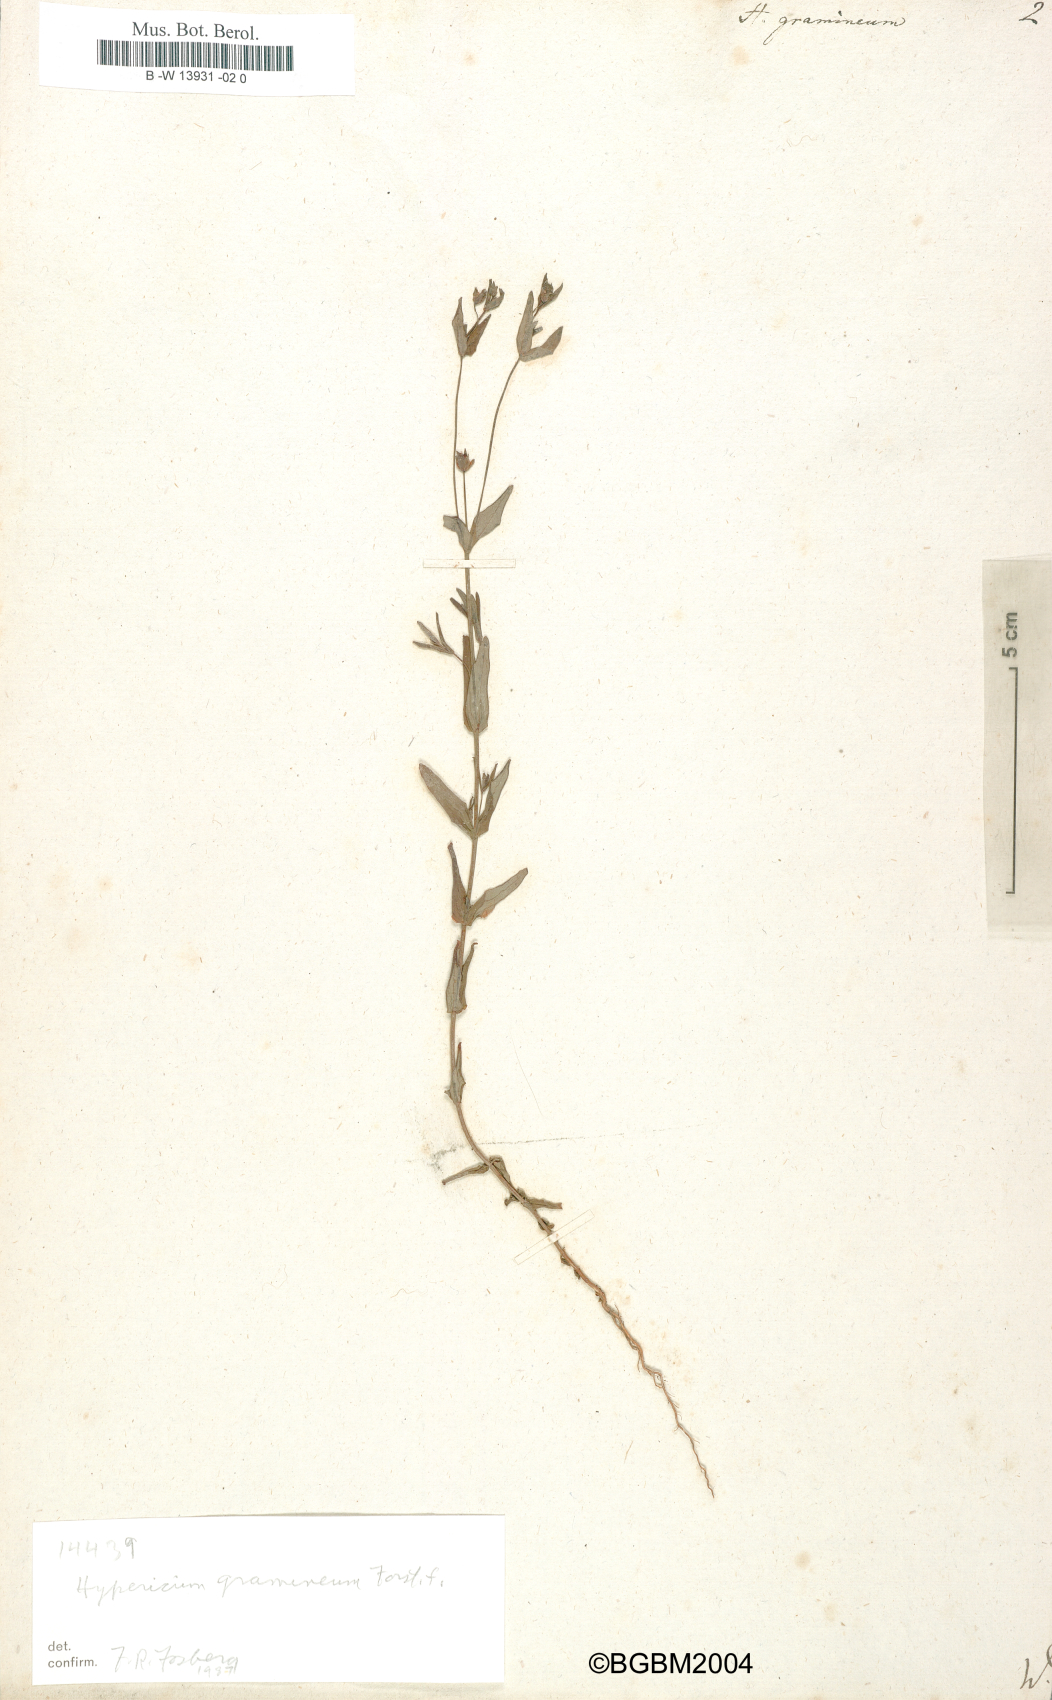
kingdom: Plantae
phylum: Tracheophyta
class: Magnoliopsida
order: Malpighiales
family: Hypericaceae
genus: Hypericum
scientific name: Hypericum gramineum
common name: Grassy st. johnswort
